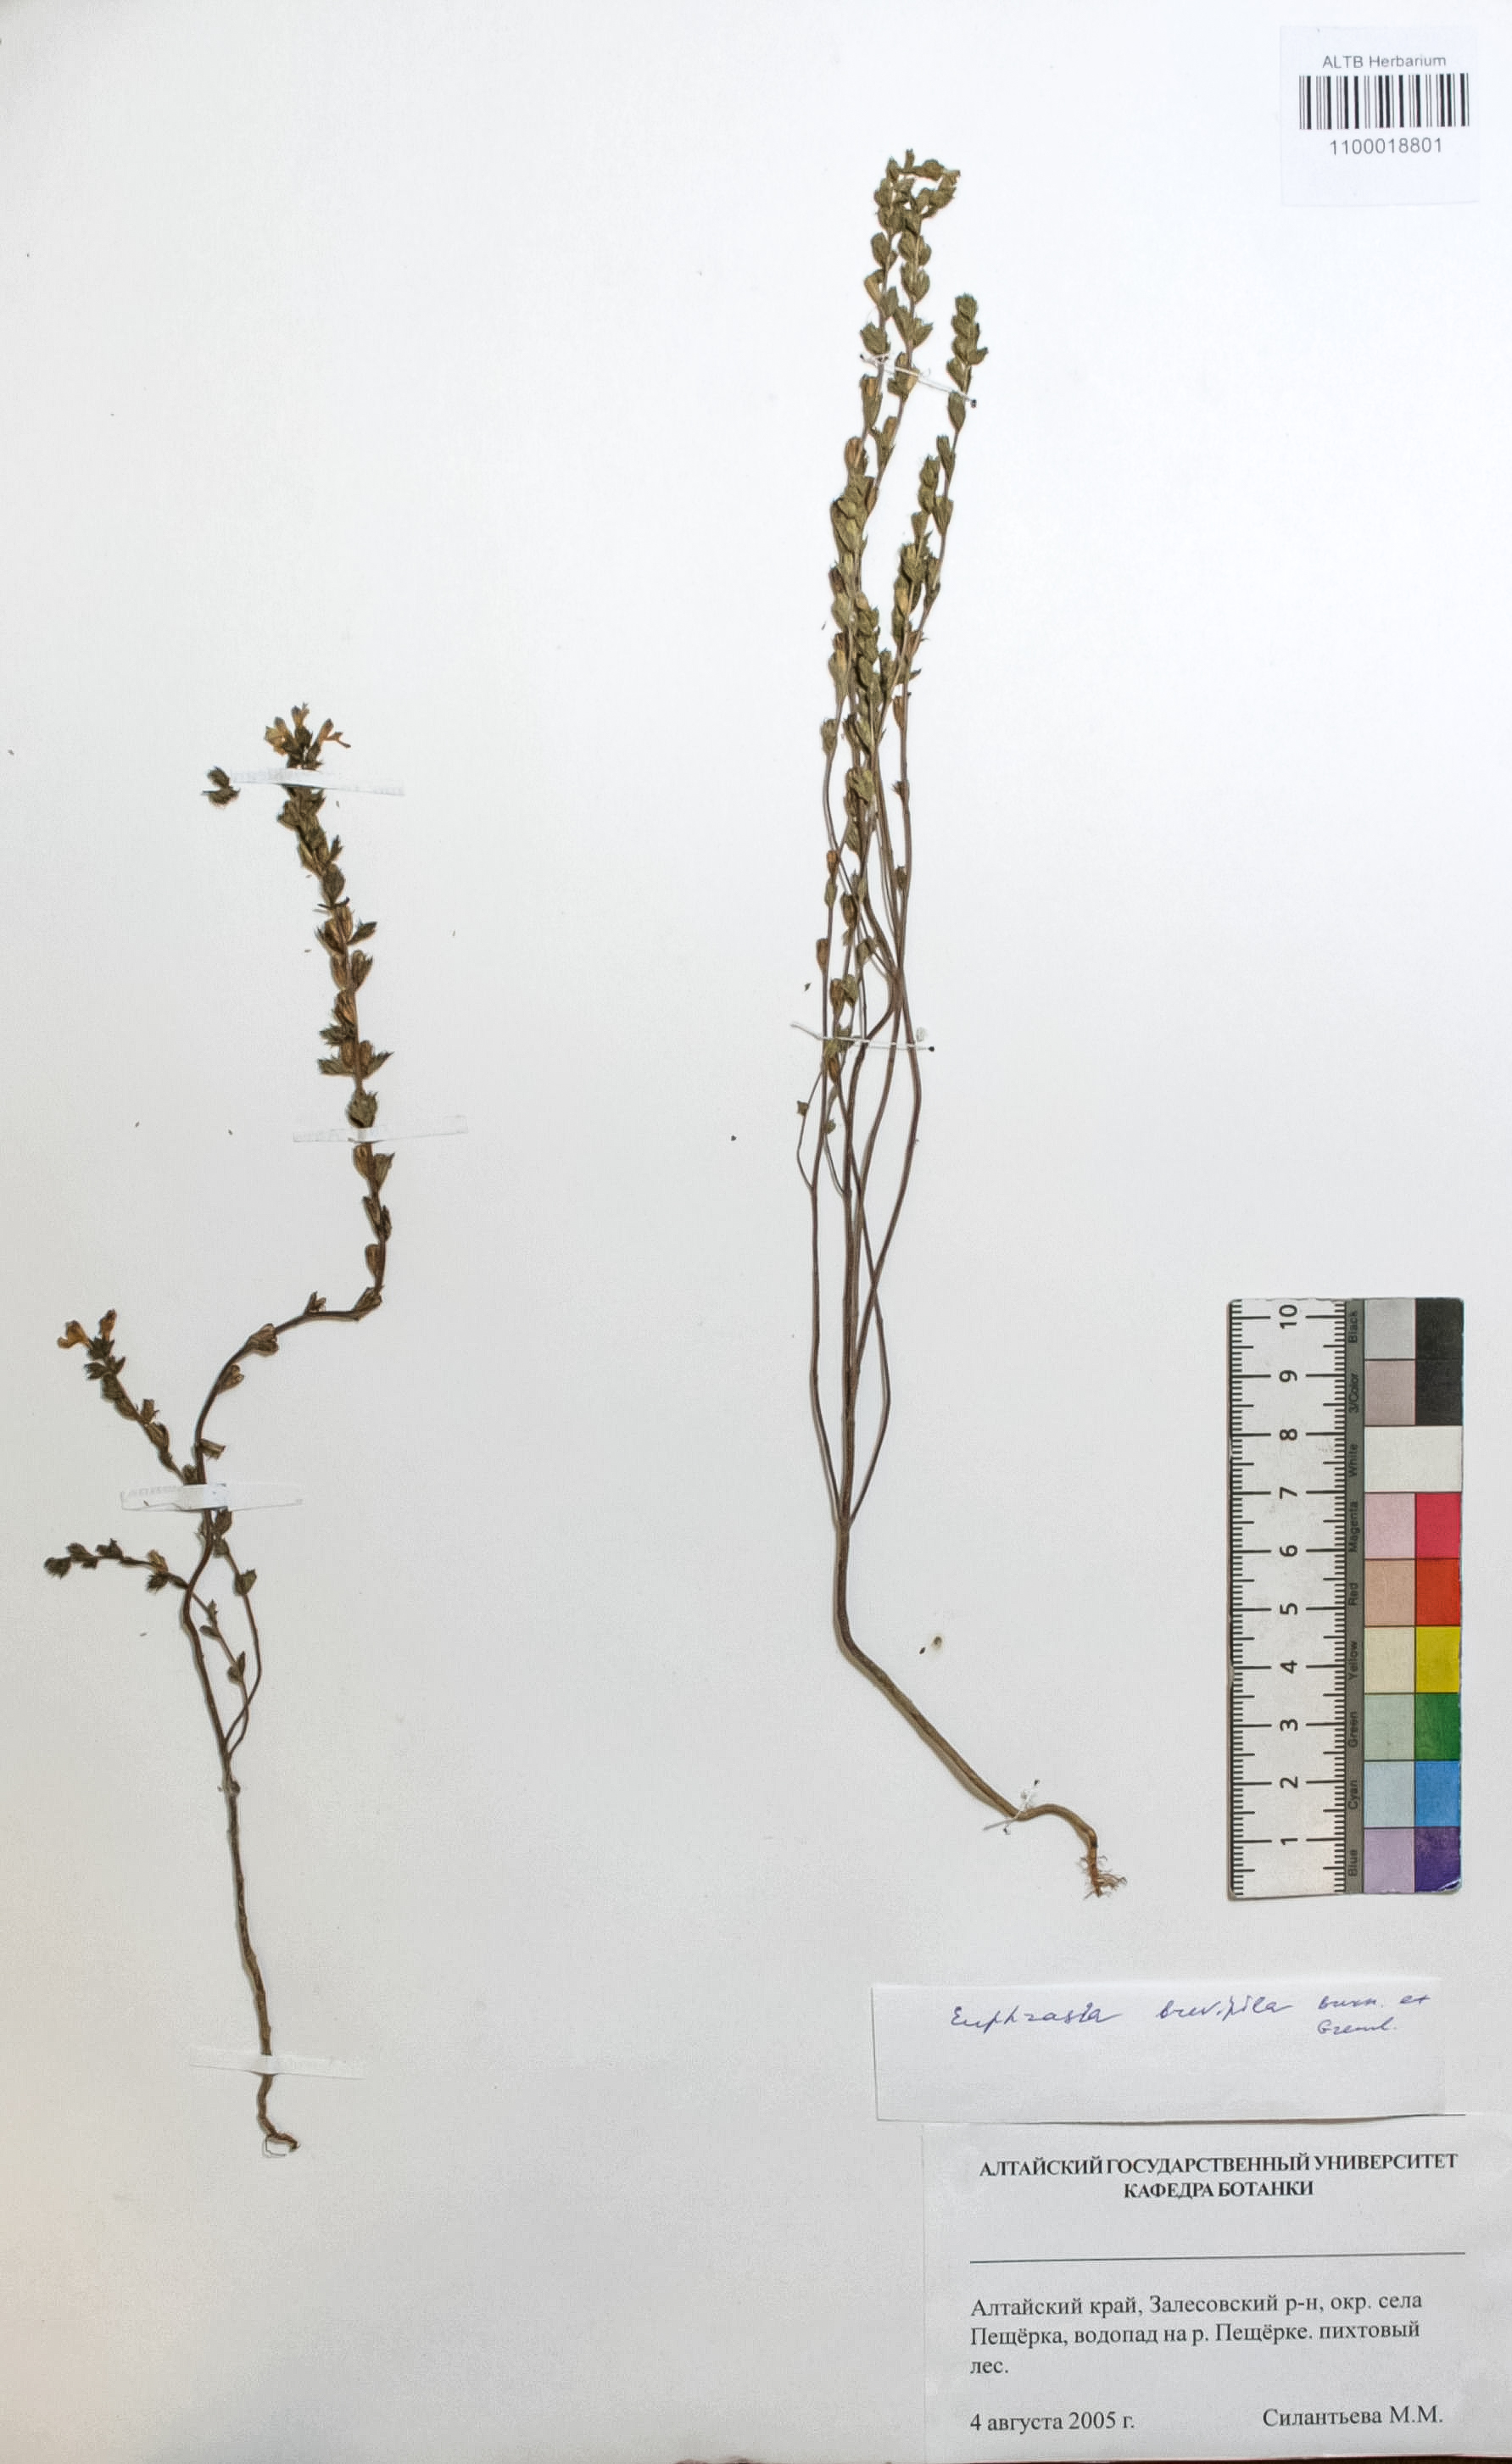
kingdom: Plantae
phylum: Tracheophyta
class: Magnoliopsida
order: Lamiales
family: Orobanchaceae
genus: Euphrasia
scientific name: Euphrasia vernalis
